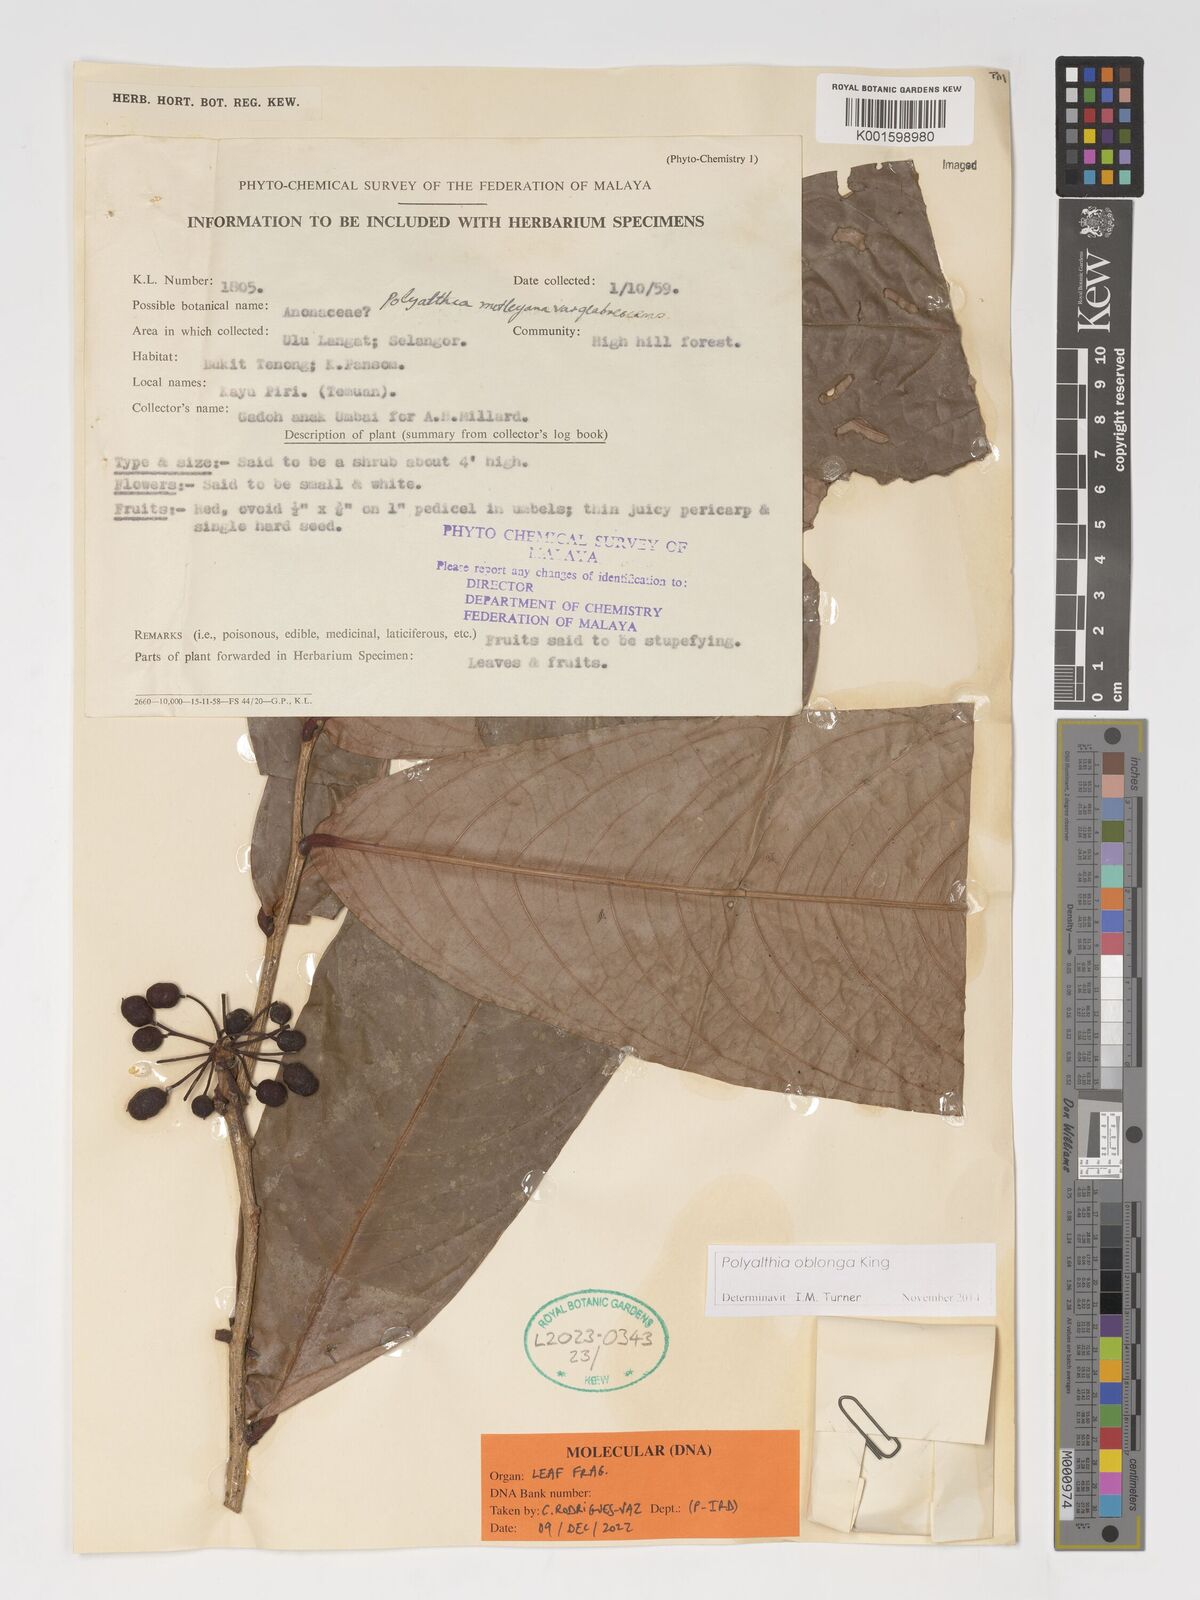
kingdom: Plantae
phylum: Tracheophyta
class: Magnoliopsida
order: Magnoliales
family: Annonaceae
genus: Polyalthia
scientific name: Polyalthia oblonga
